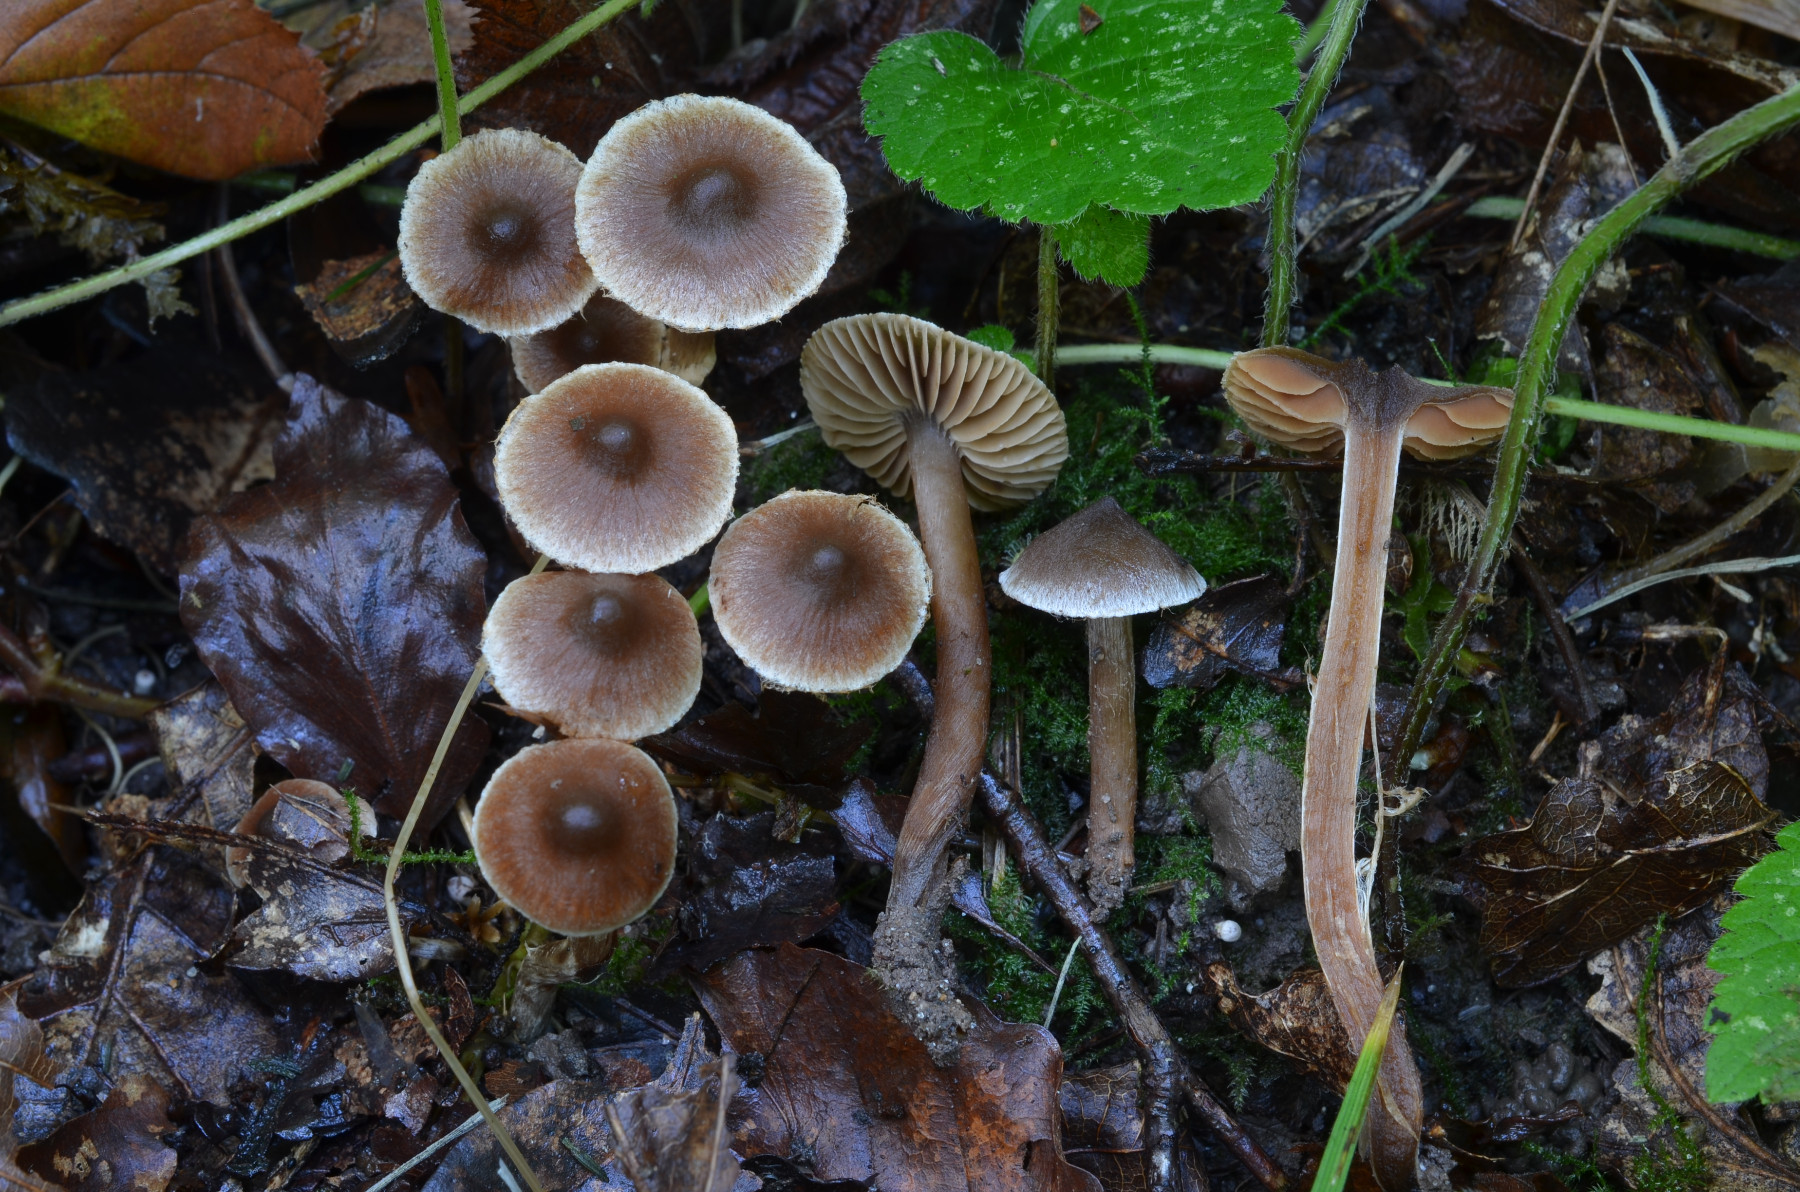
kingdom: Fungi
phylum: Basidiomycota
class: Agaricomycetes
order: Agaricales
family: Cortinariaceae
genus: Cortinarius
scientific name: Cortinarius
